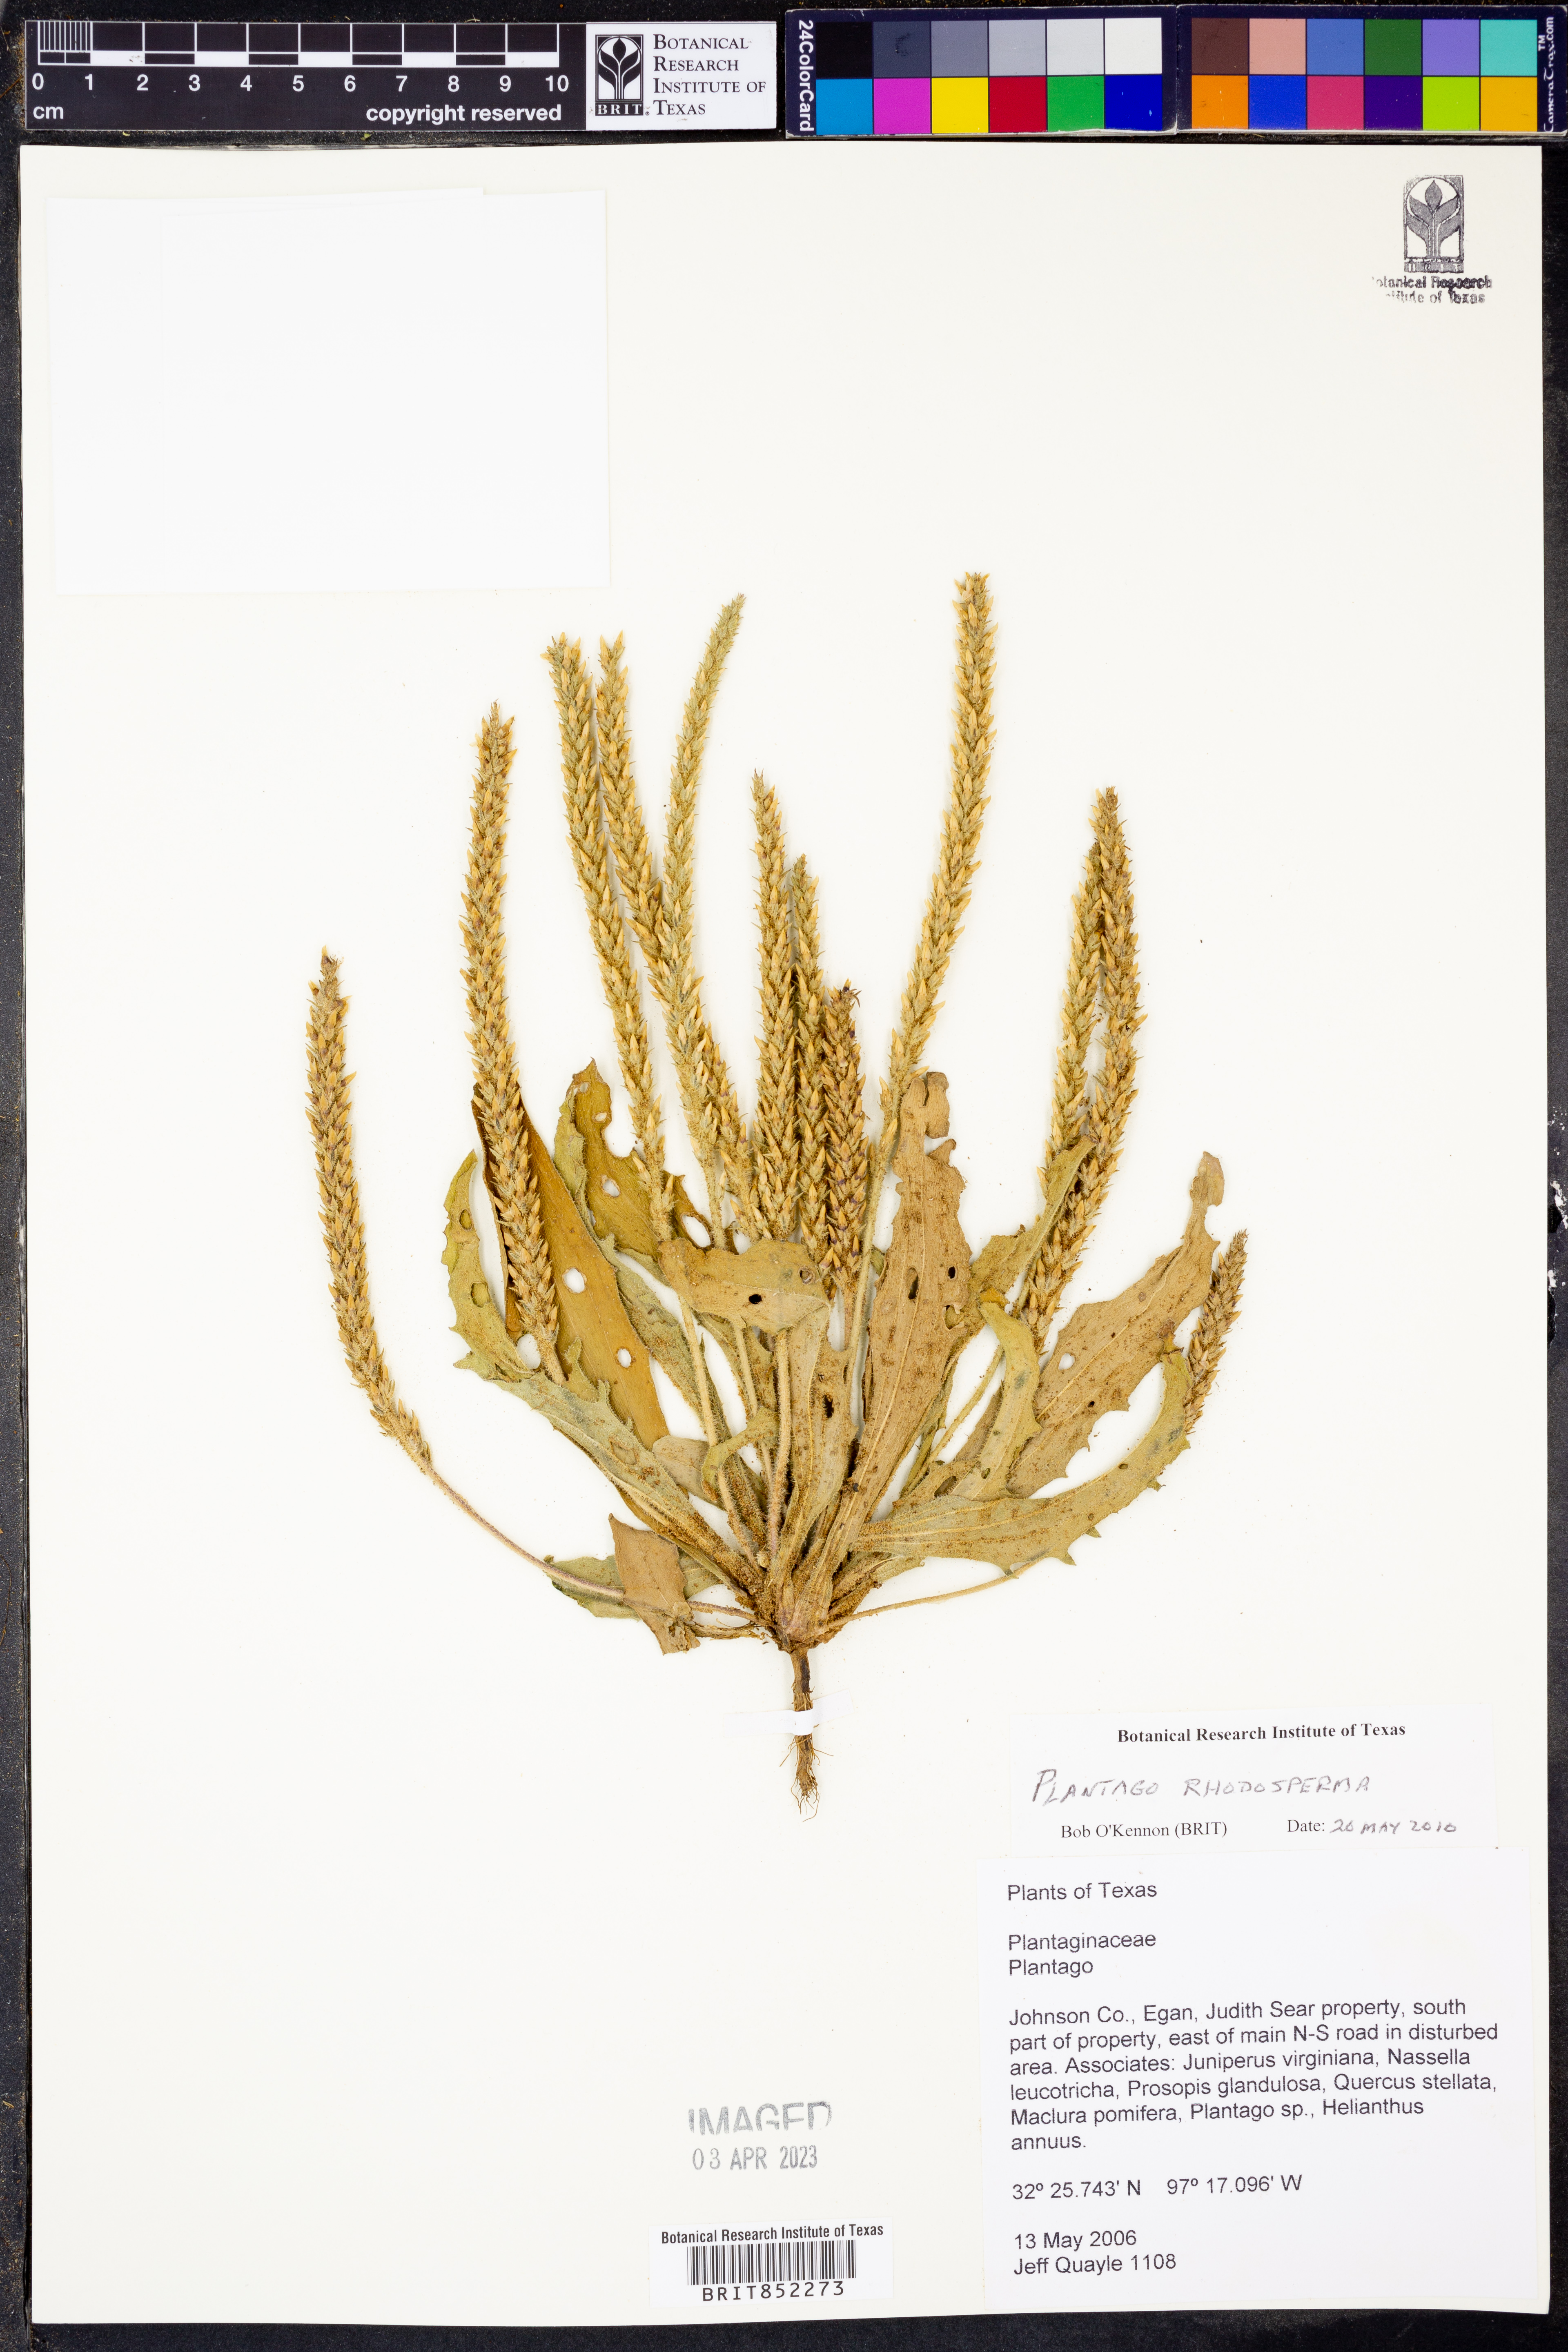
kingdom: Plantae
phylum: Tracheophyta
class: Magnoliopsida
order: Lamiales
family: Plantaginaceae
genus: Plantago
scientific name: Plantago rhodosperma
